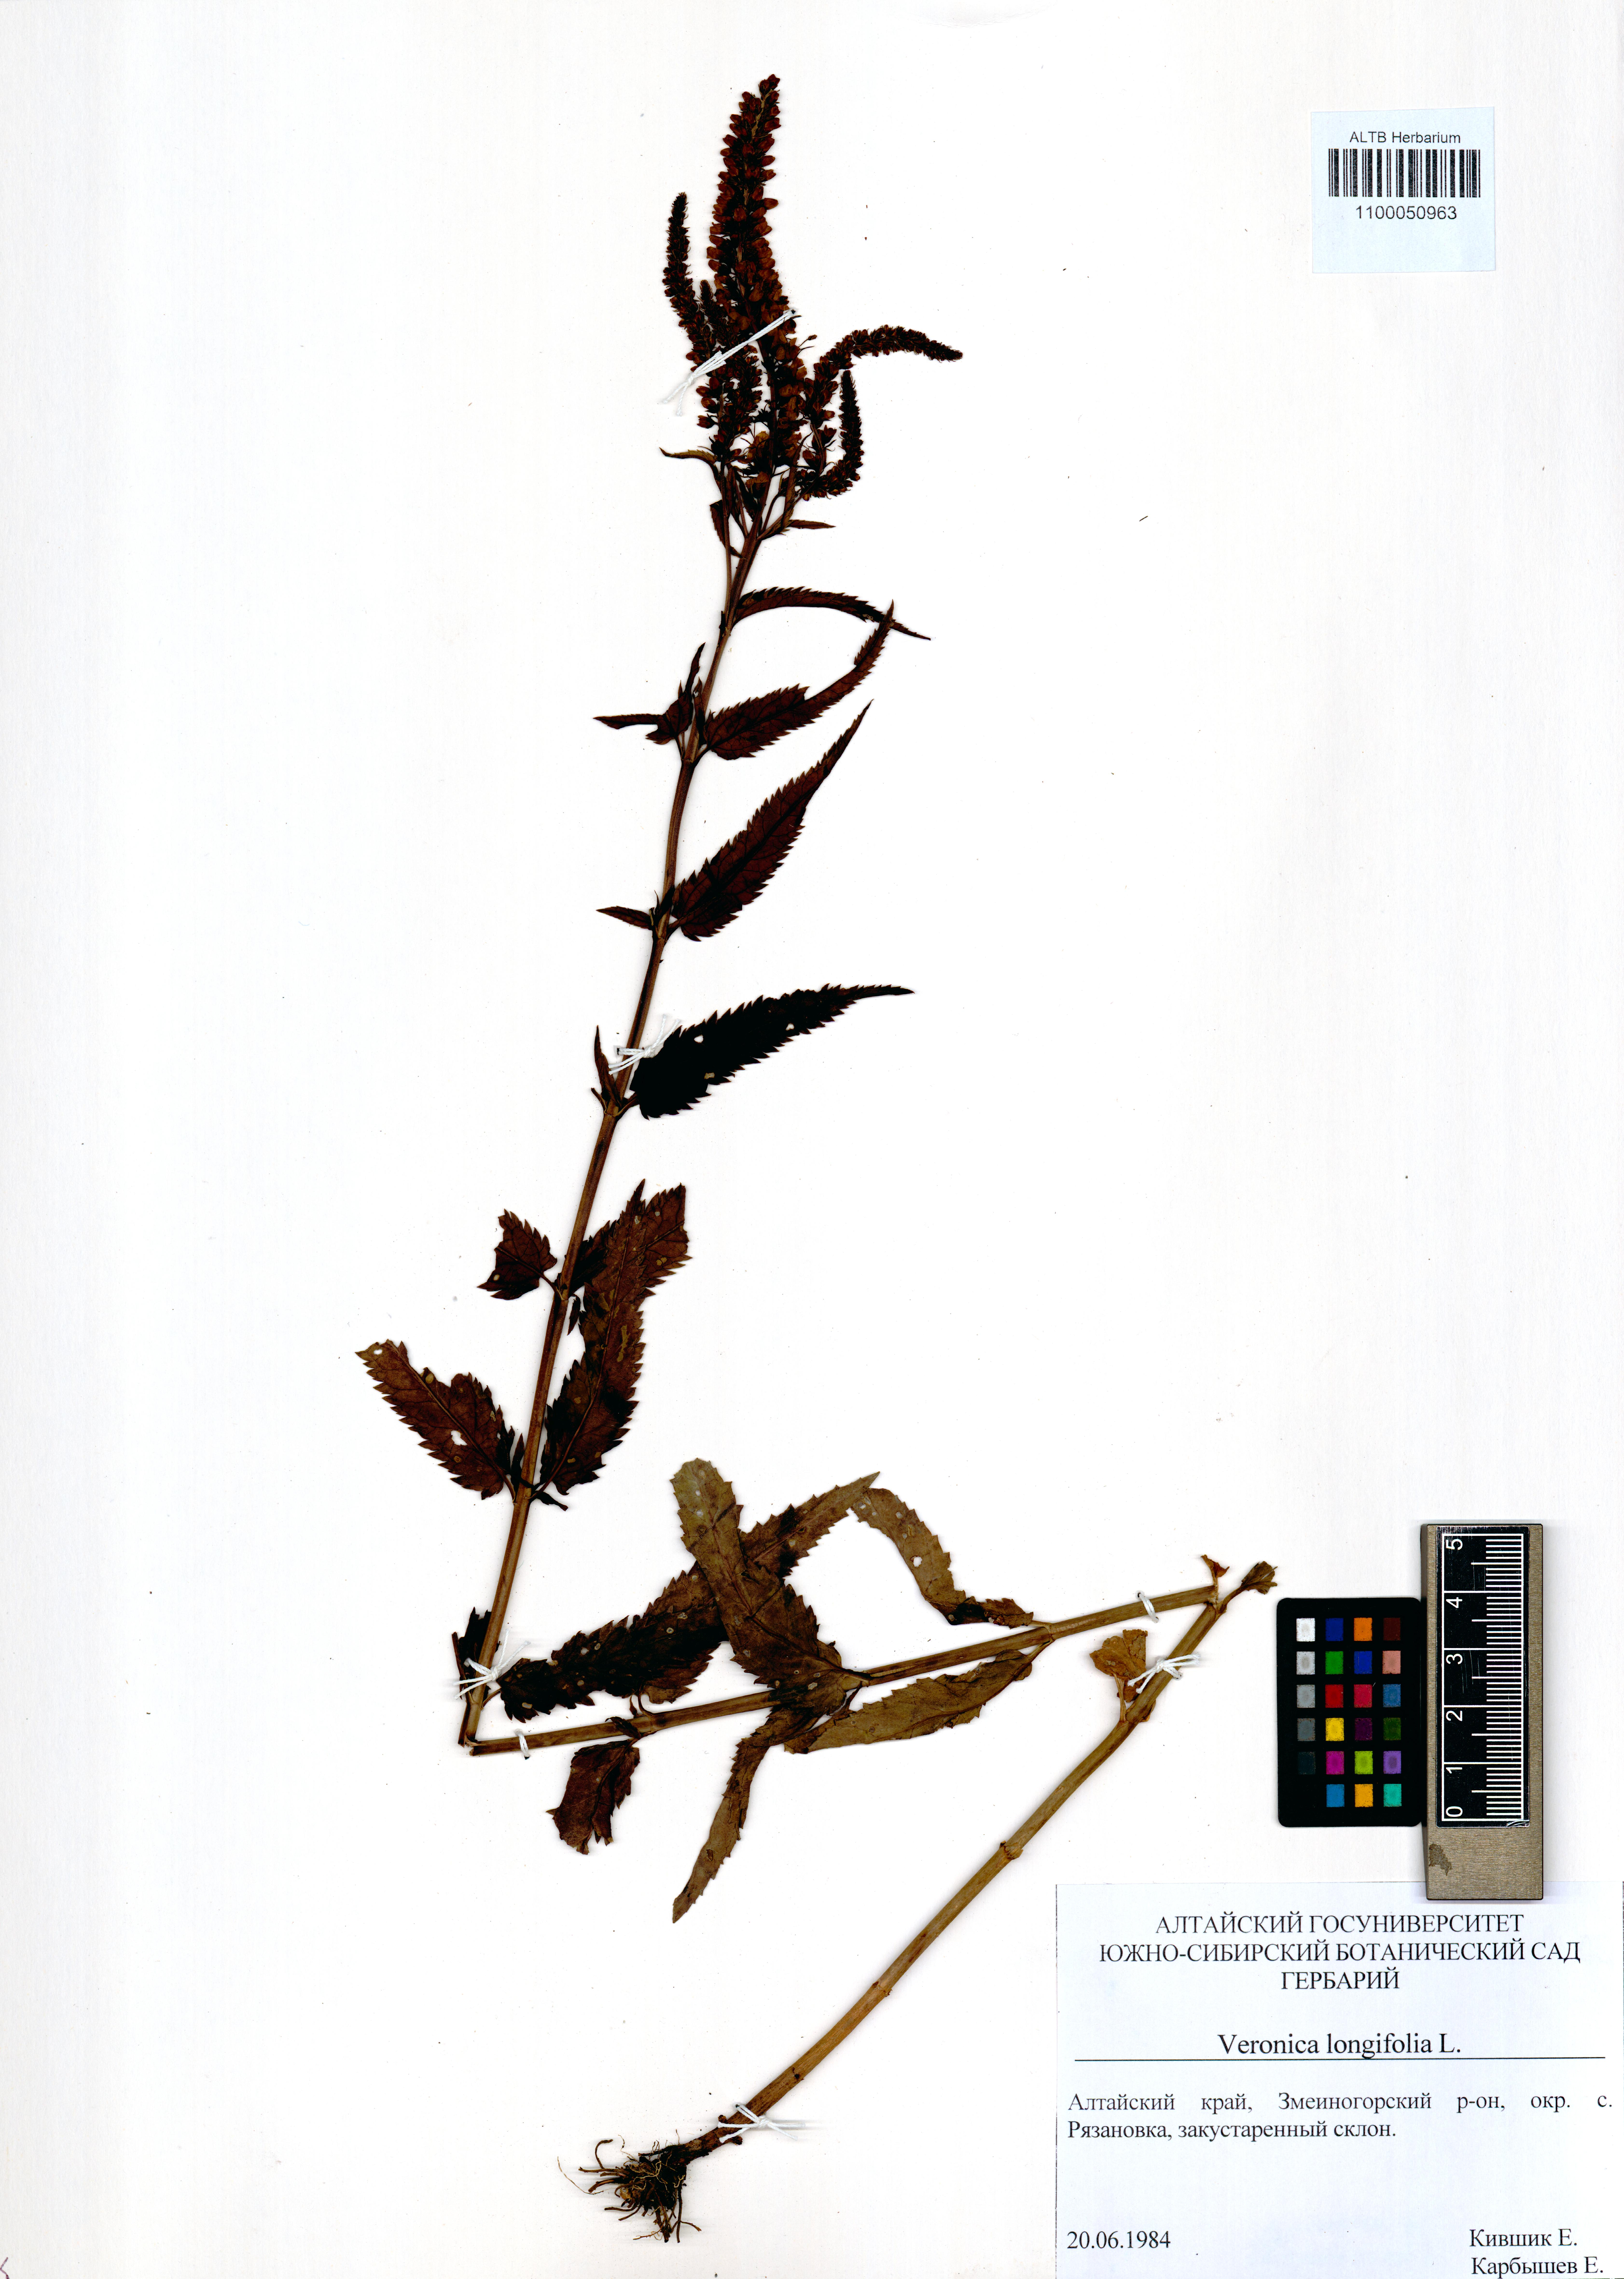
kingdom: Plantae
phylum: Tracheophyta
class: Magnoliopsida
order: Lamiales
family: Plantaginaceae
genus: Veronica
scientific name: Veronica longifolia
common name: Garden speedwell
